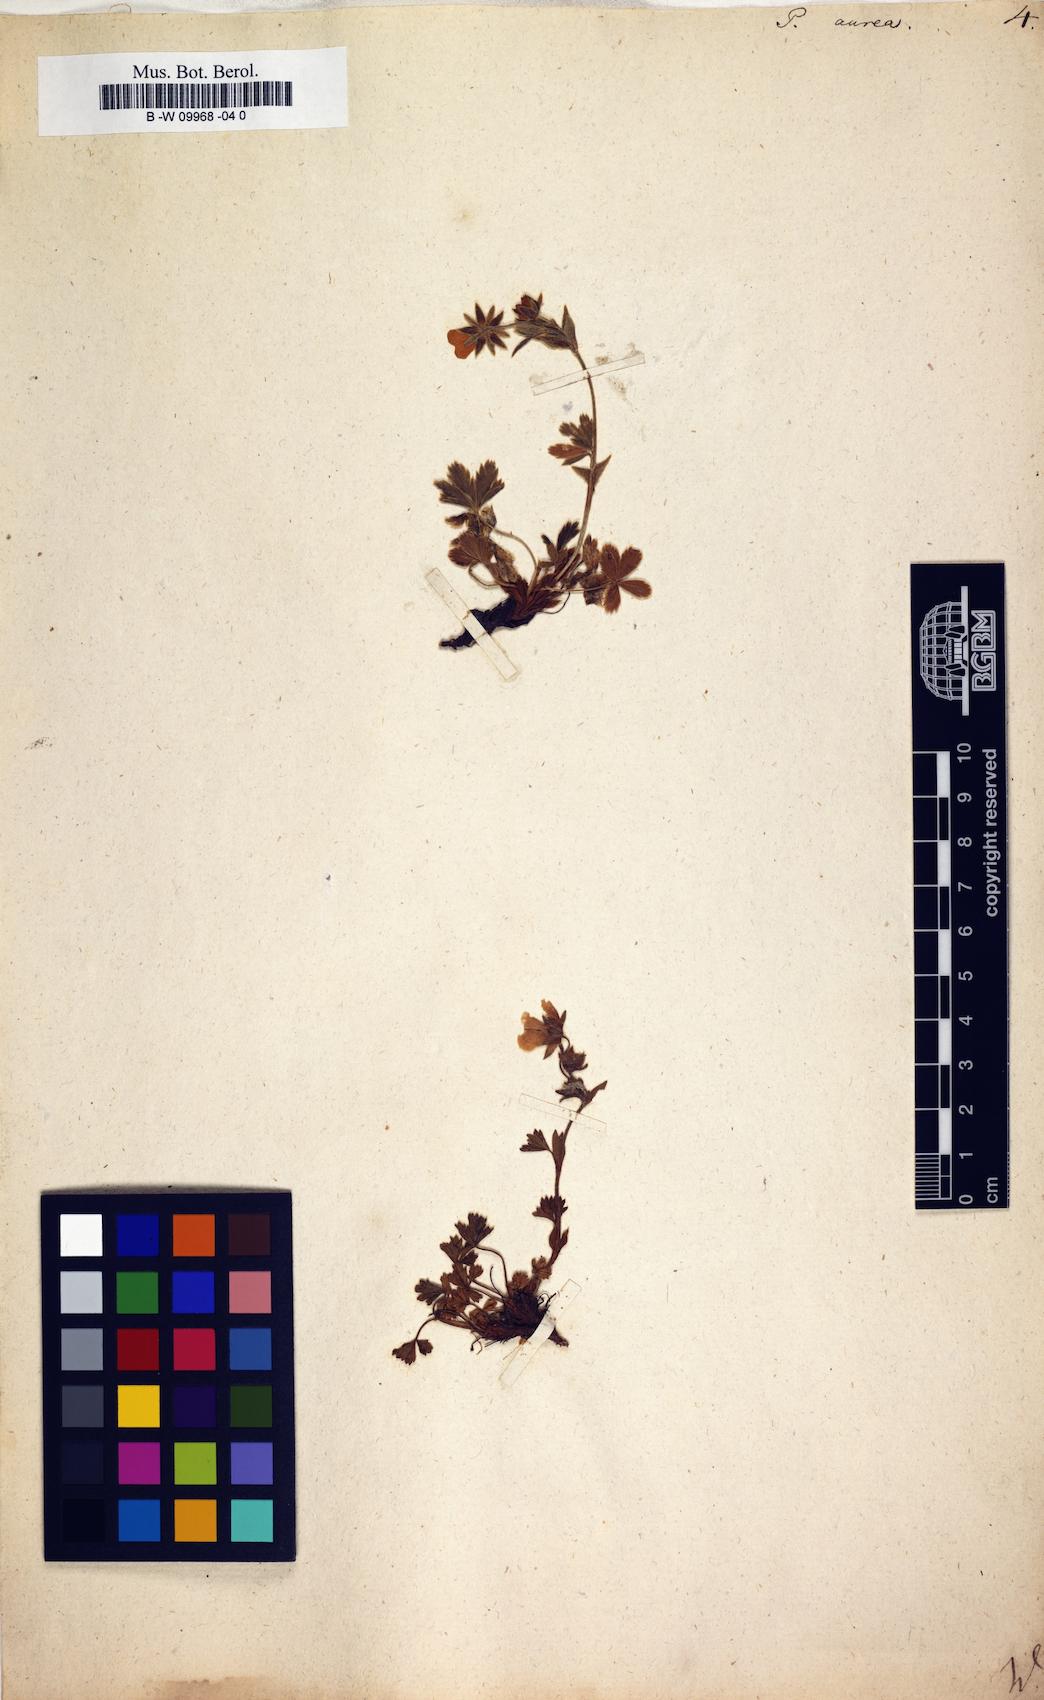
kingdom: Plantae
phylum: Tracheophyta
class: Magnoliopsida
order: Rosales
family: Rosaceae
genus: Potentilla
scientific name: Potentilla aurea
